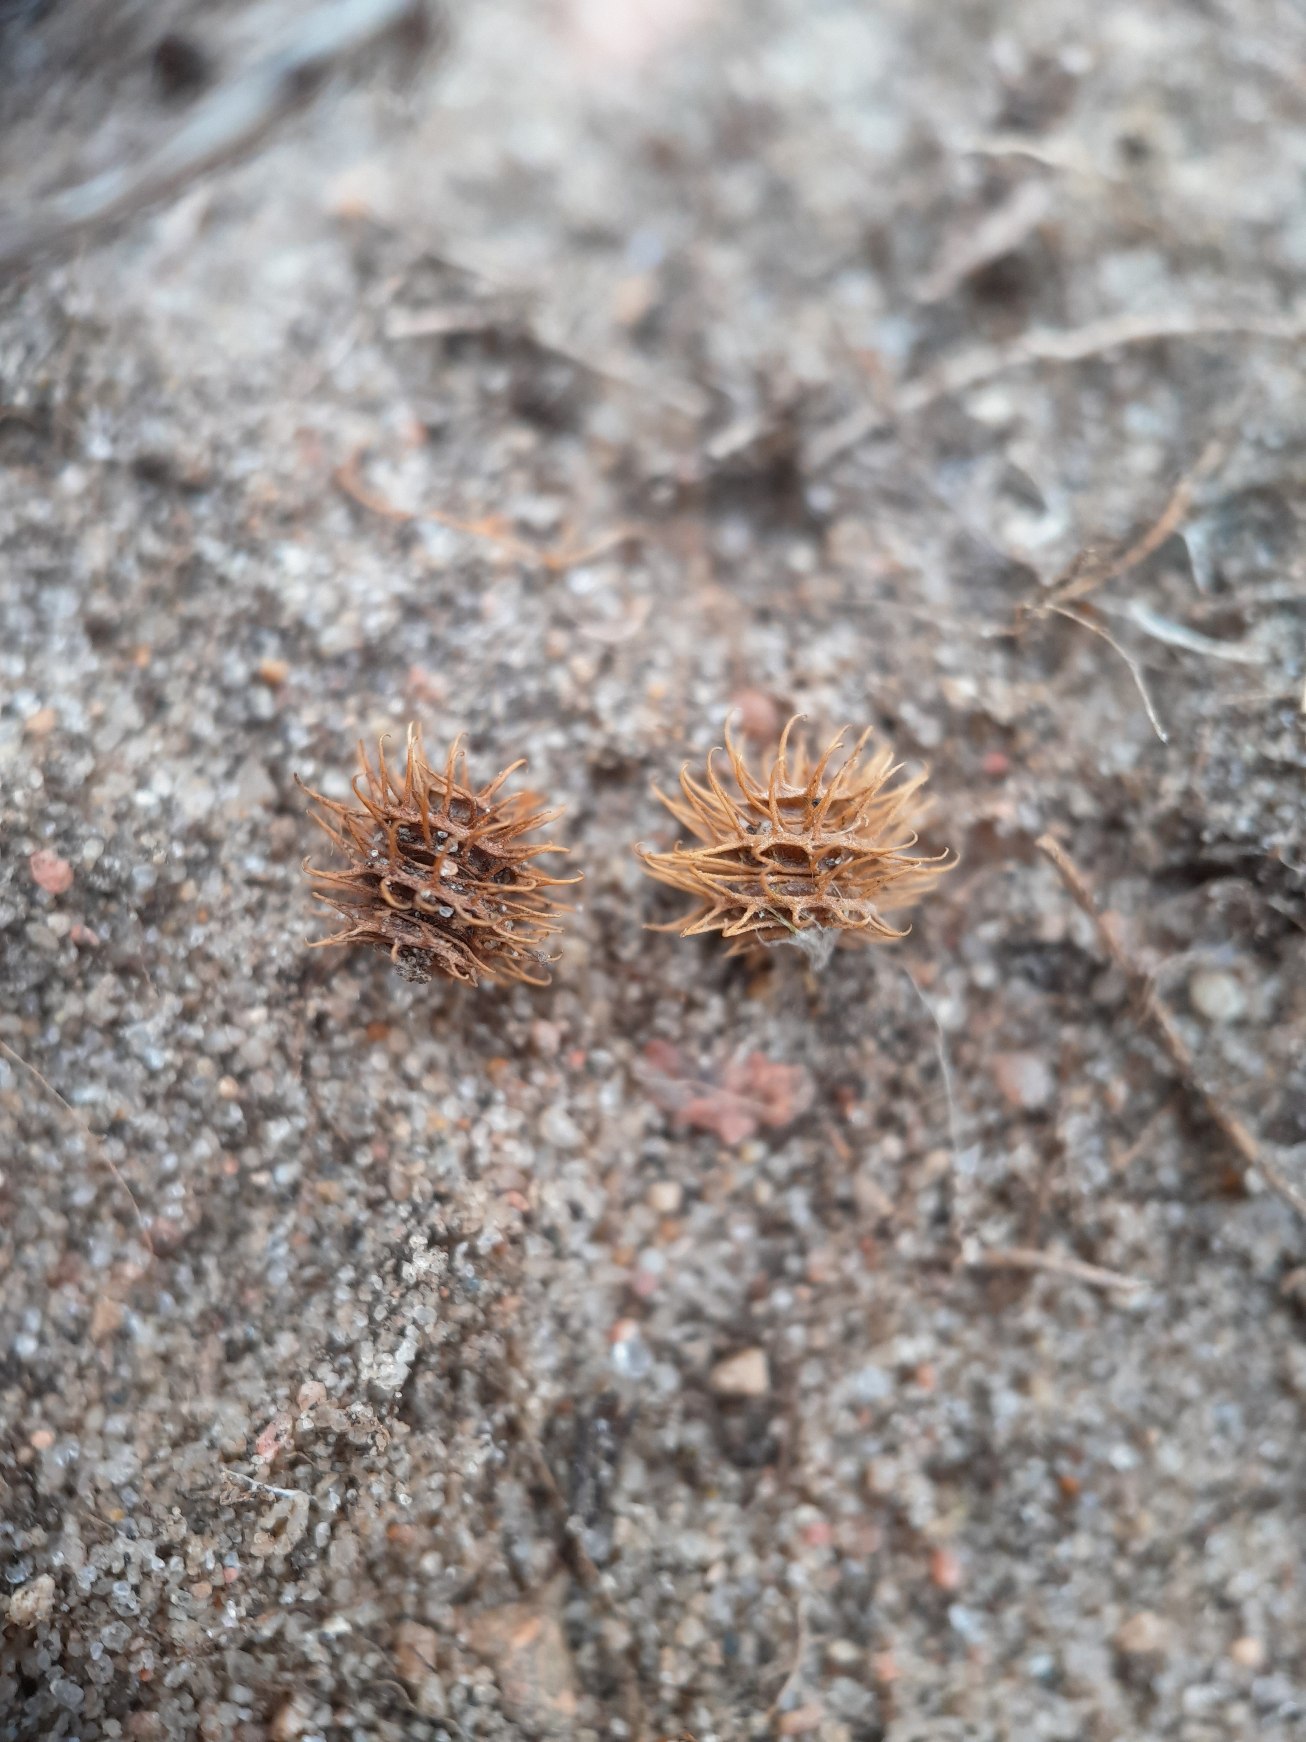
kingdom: Plantae
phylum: Tracheophyta
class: Magnoliopsida
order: Fabales
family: Fabaceae
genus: Medicago
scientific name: Medicago minima
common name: Liden sneglebælg
